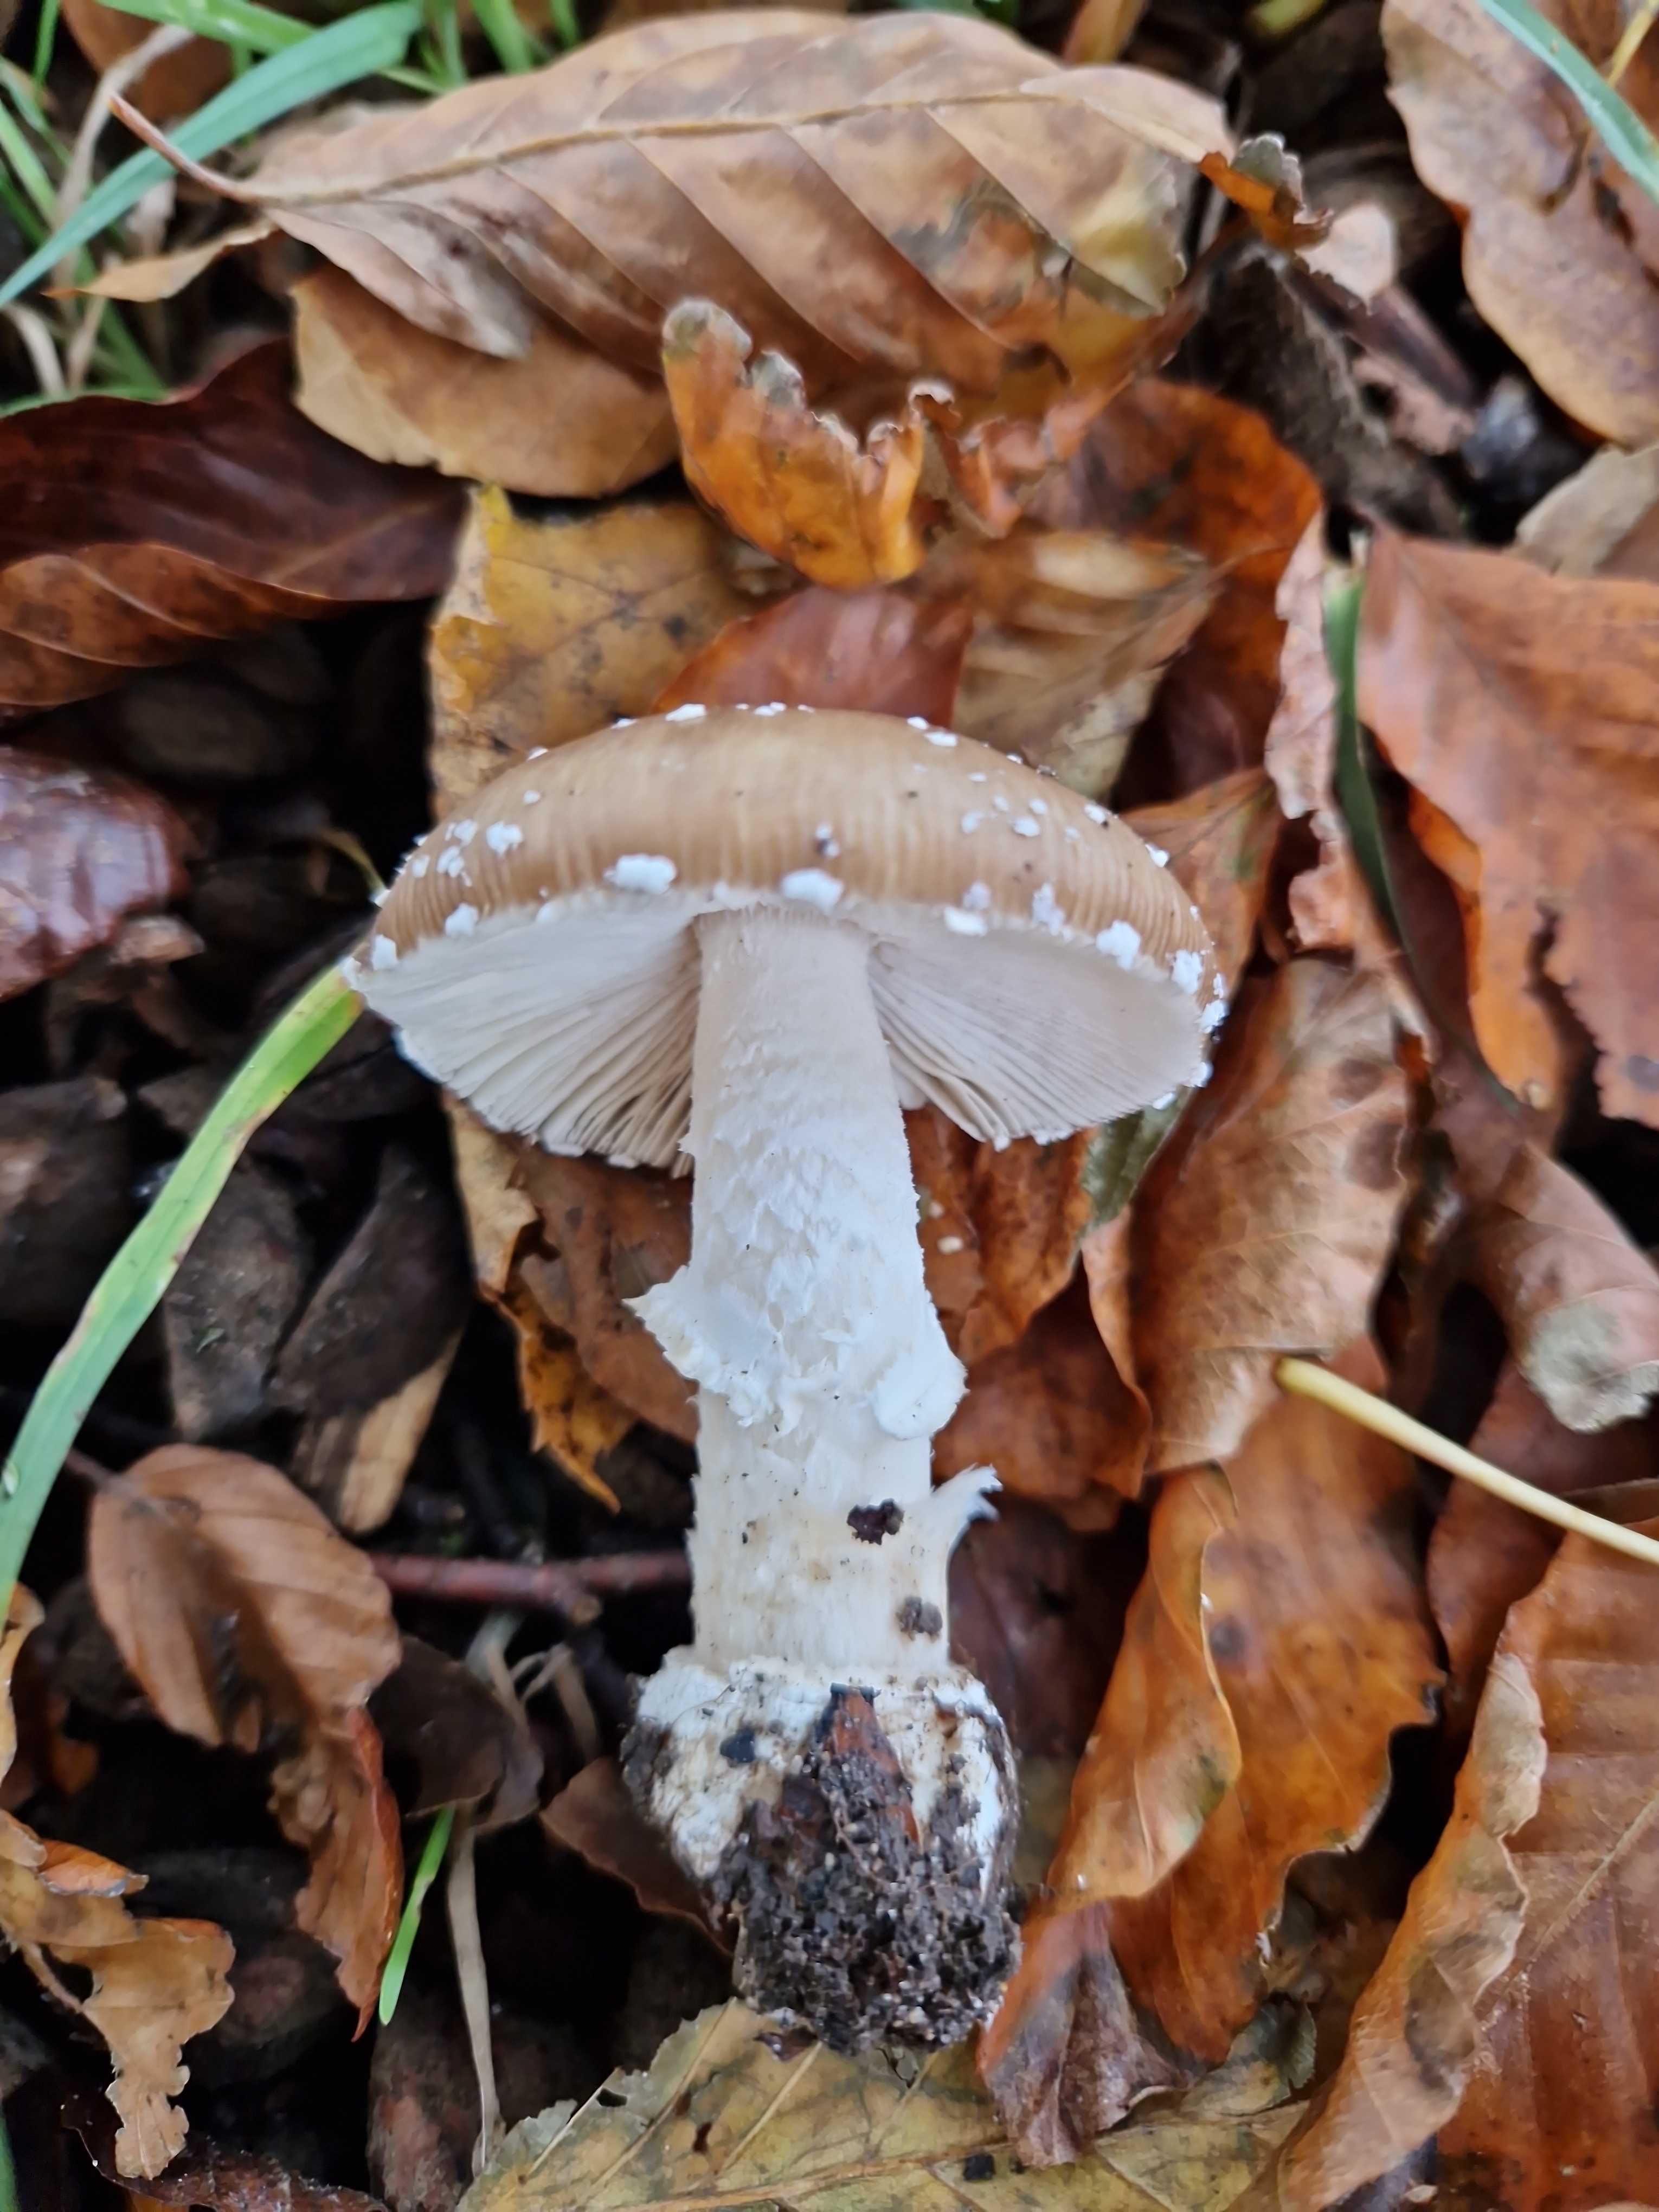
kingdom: Fungi
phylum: Basidiomycota
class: Agaricomycetes
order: Agaricales
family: Amanitaceae
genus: Amanita
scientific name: Amanita pantherina
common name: panter-fluesvamp
